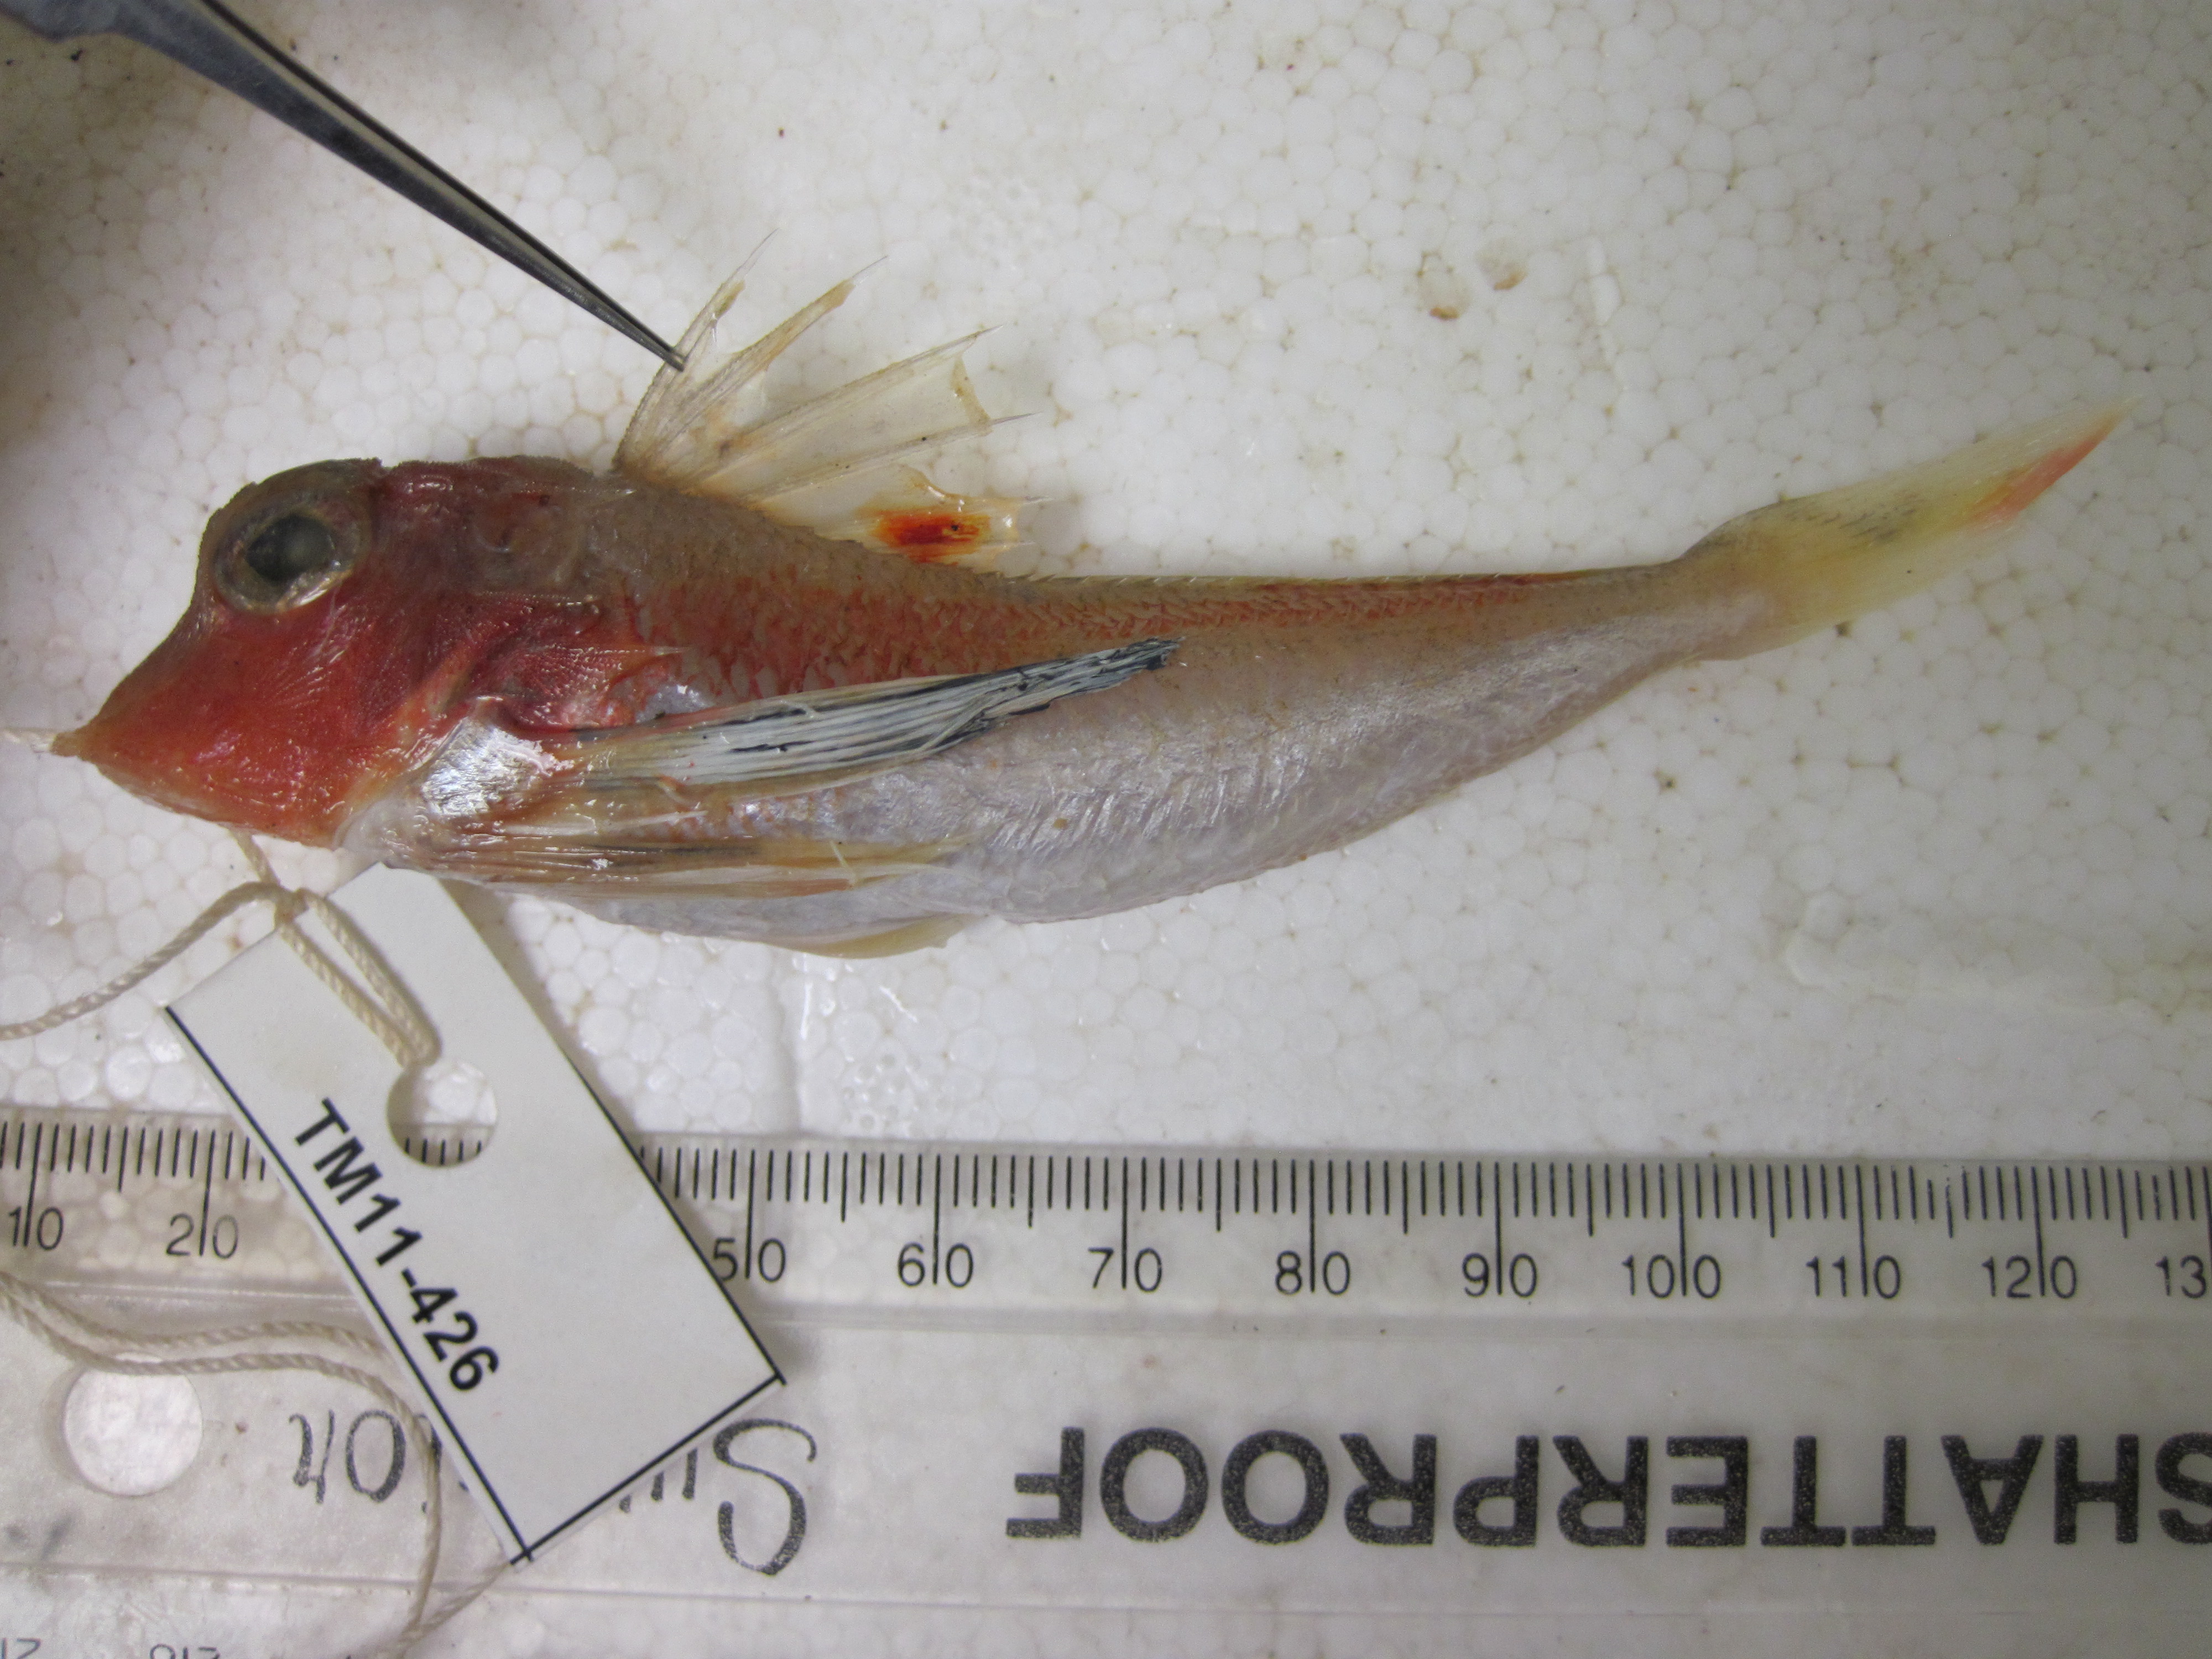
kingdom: Animalia
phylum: Chordata
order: Scorpaeniformes
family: Triglidae
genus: Lepidotrigla
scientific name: Lepidotrigla faurei
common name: Prickly gurnard
